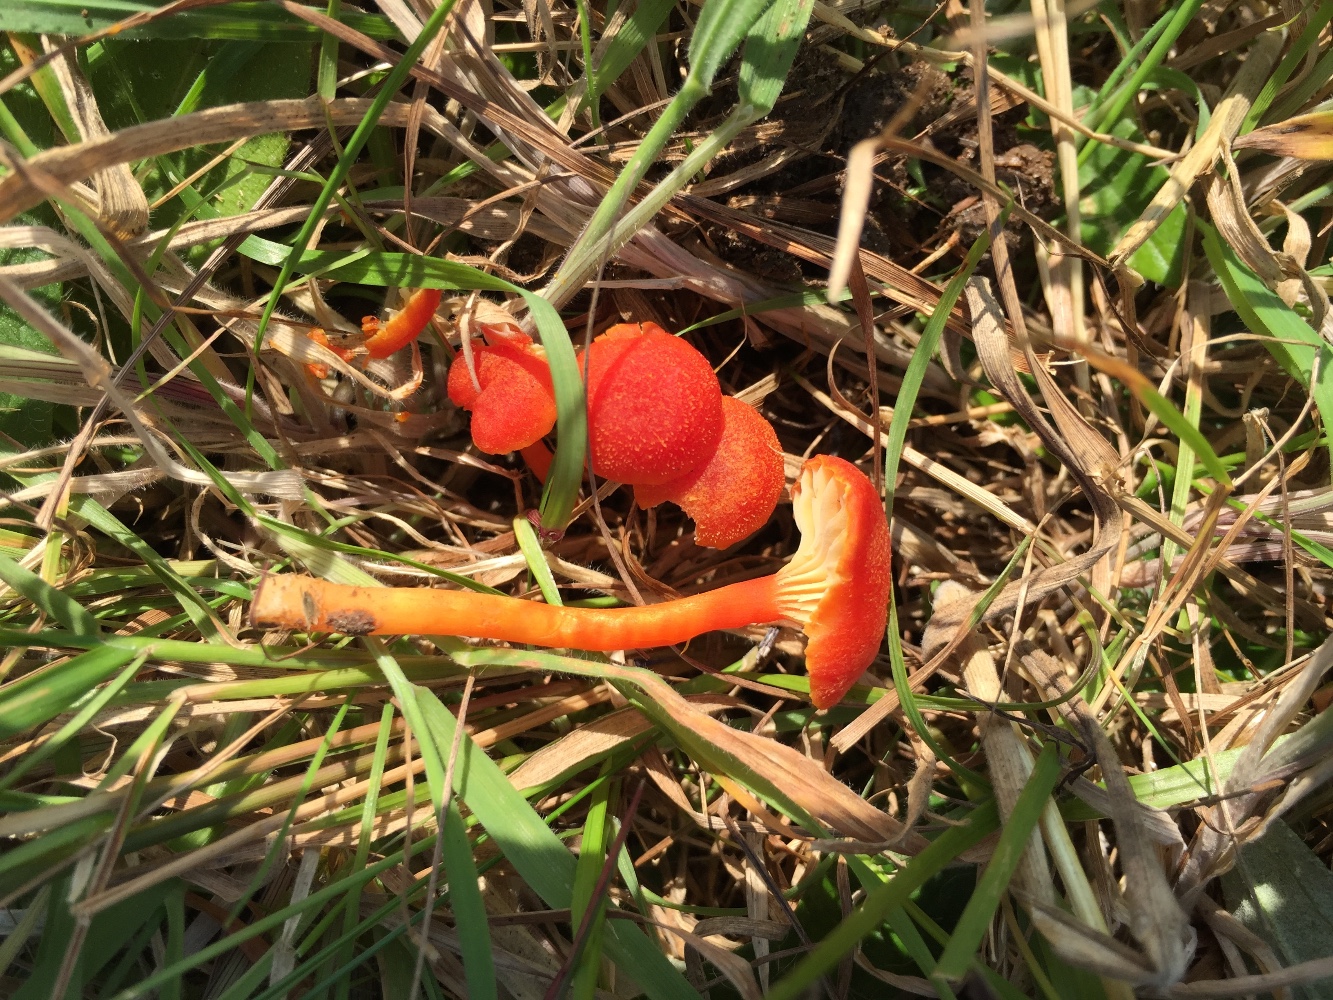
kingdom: Fungi
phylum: Basidiomycota
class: Agaricomycetes
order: Agaricales
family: Hygrophoraceae
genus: Hygrocybe
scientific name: Hygrocybe helobia
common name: hvidløgs-vokshat
